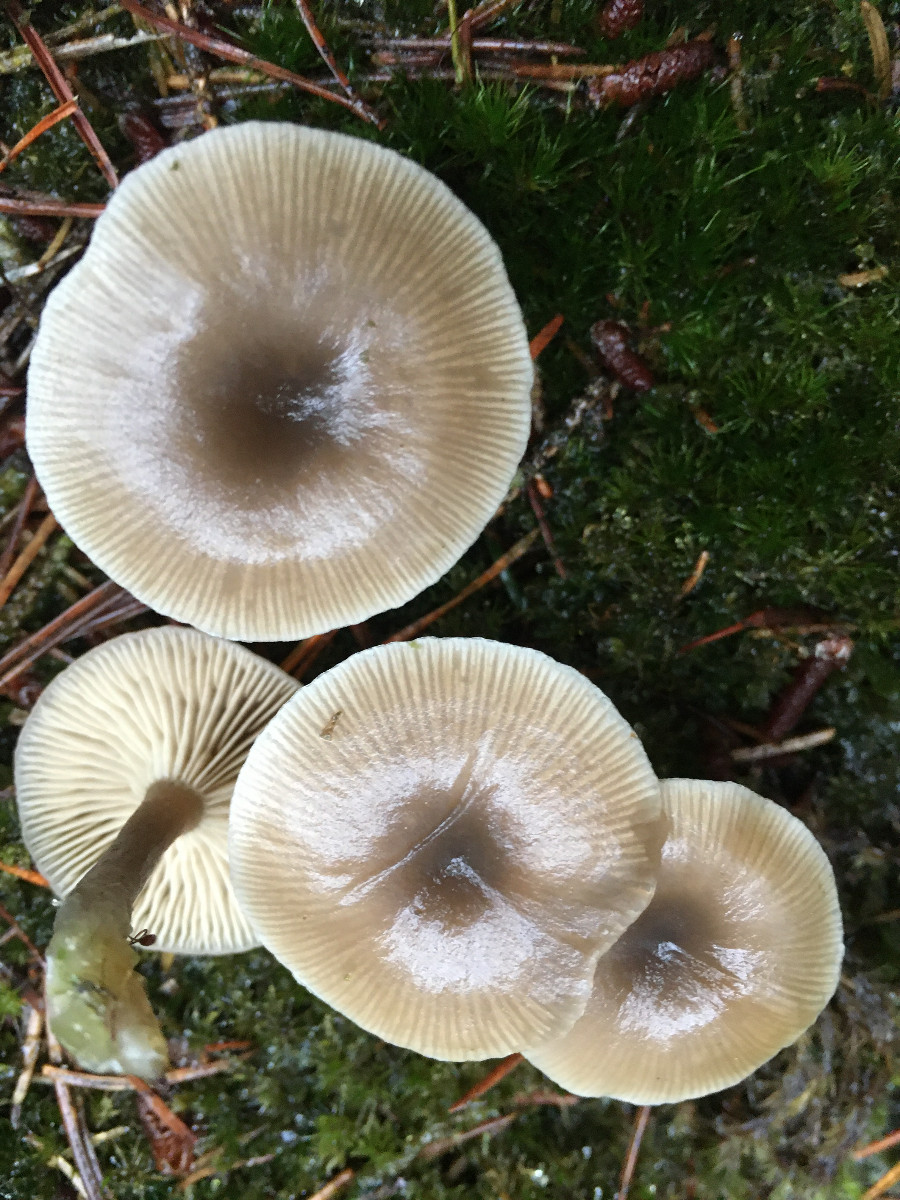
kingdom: Fungi
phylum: Basidiomycota
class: Agaricomycetes
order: Agaricales
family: Tricholomataceae
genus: Clitocybe
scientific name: Clitocybe
